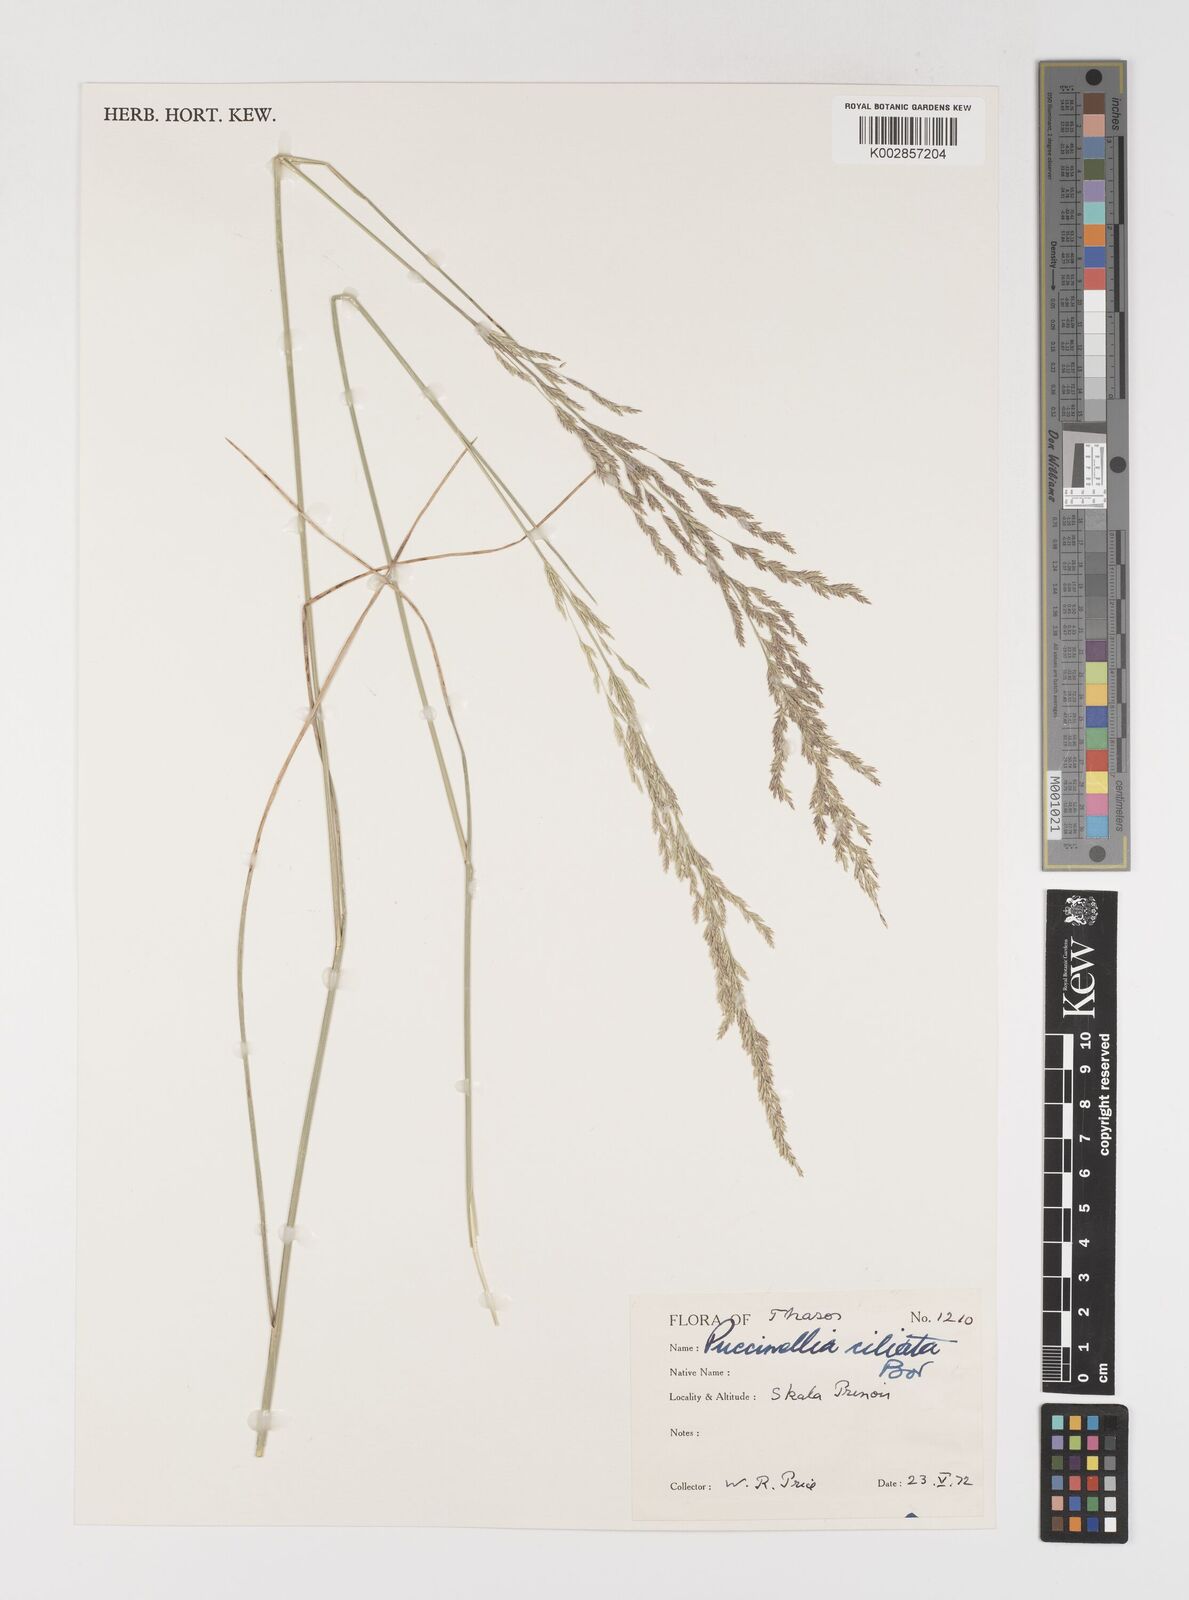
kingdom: Plantae
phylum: Tracheophyta
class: Liliopsida
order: Poales
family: Poaceae
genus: Puccinellia
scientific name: Puccinellia ciliata
